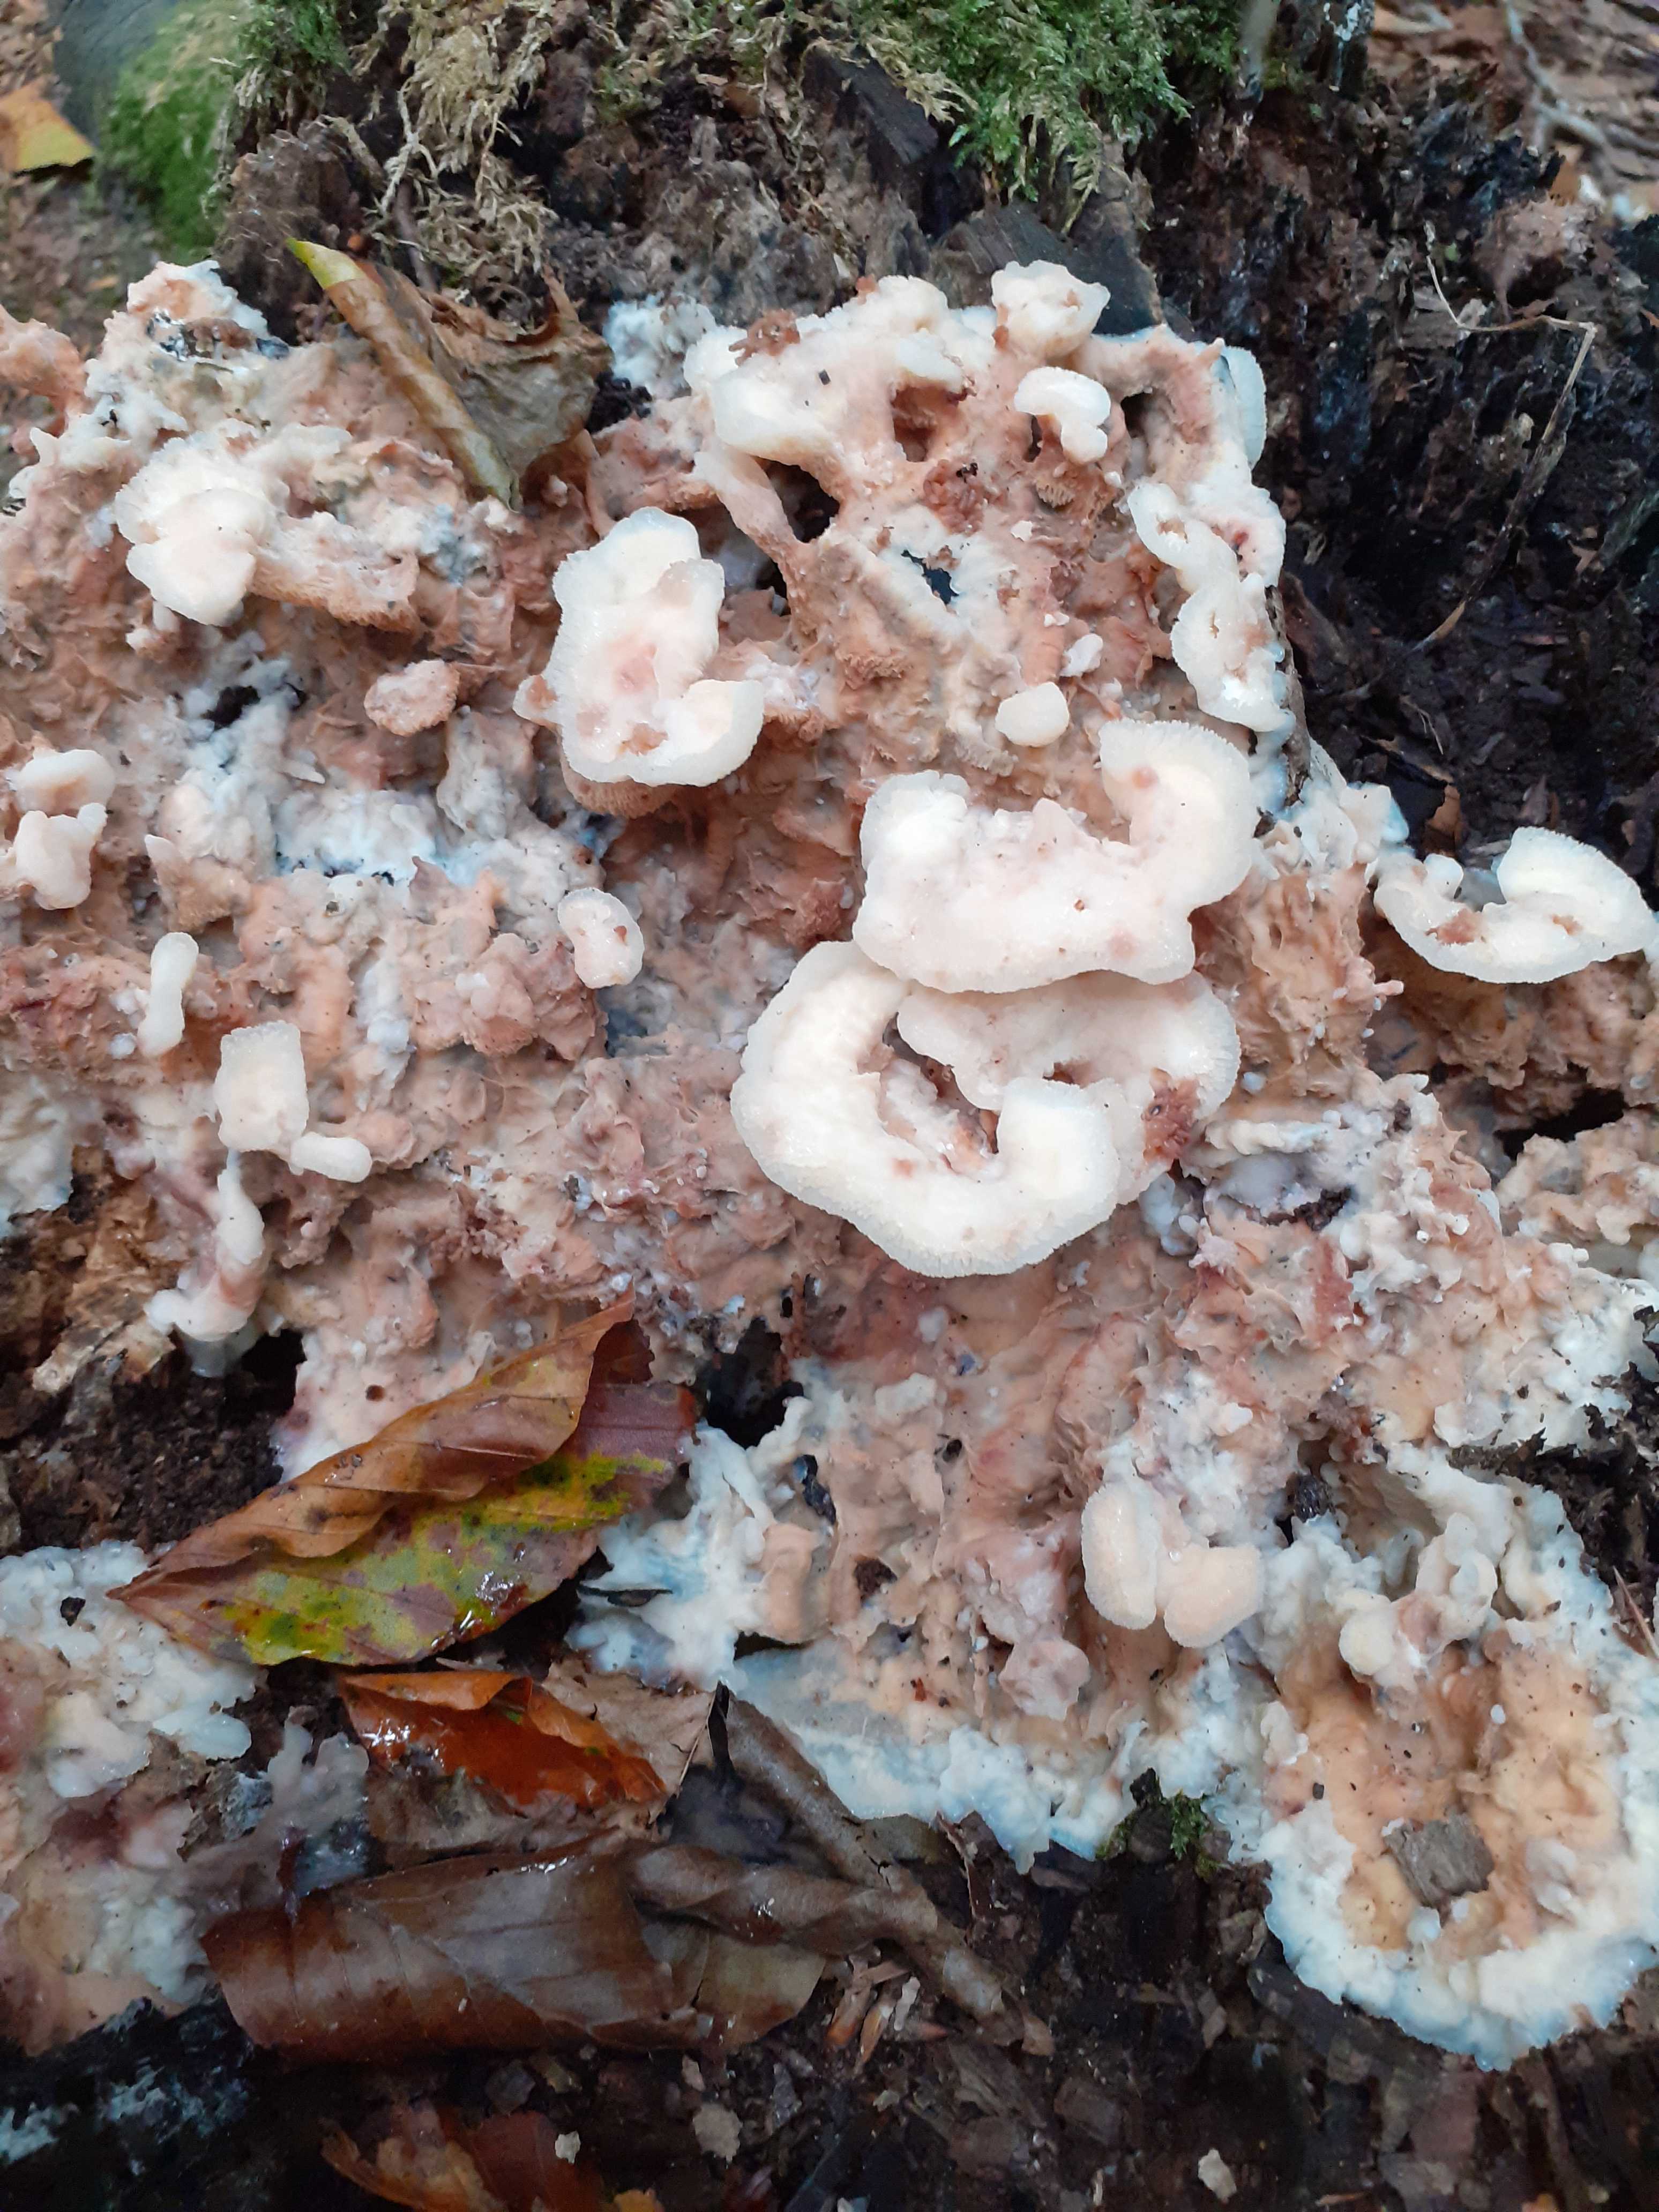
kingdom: Fungi
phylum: Basidiomycota
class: Agaricomycetes
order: Polyporales
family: Meruliaceae
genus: Phlebia
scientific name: Phlebia tremellosa
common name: bævrende åresvamp
